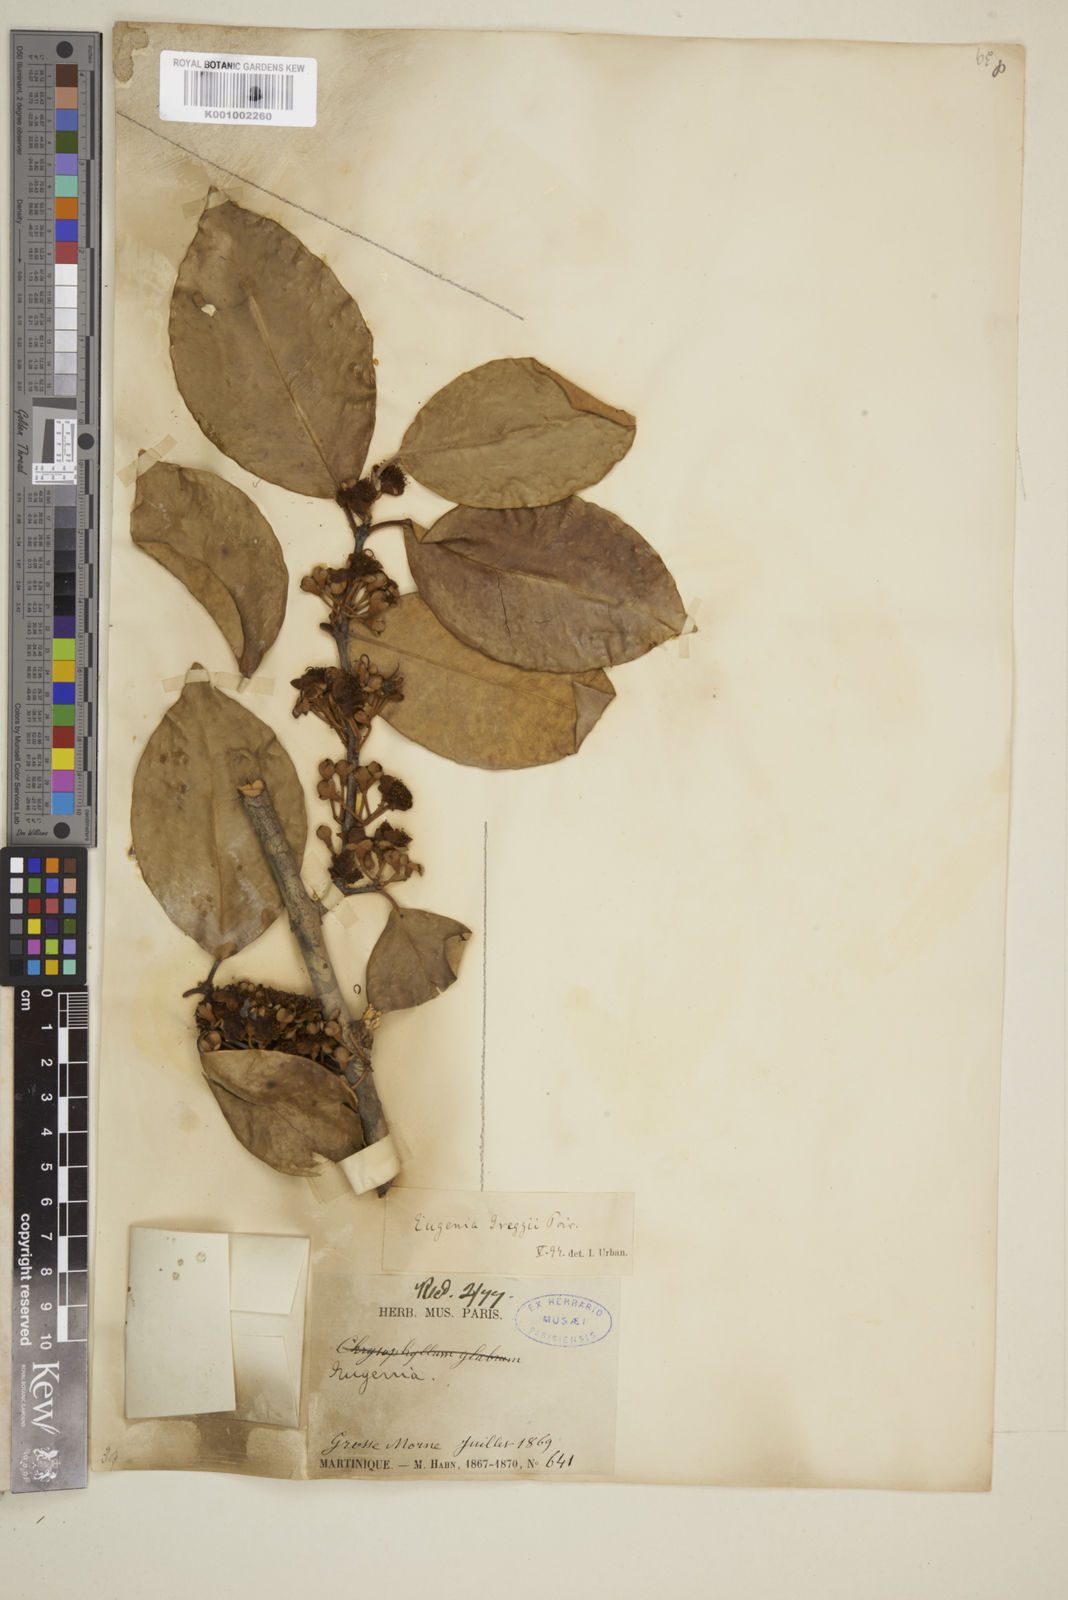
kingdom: Plantae
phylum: Tracheophyta
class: Magnoliopsida
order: Myrtales
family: Myrtaceae
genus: Eugenia
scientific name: Eugenia greggii
